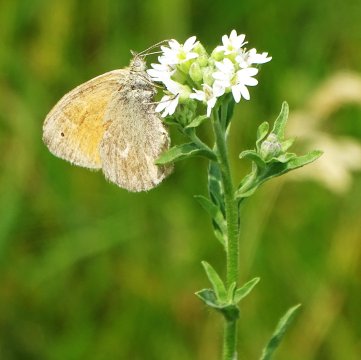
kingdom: Animalia
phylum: Arthropoda
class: Insecta
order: Lepidoptera
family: Nymphalidae
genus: Coenonympha
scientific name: Coenonympha california
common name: California Ringlet
